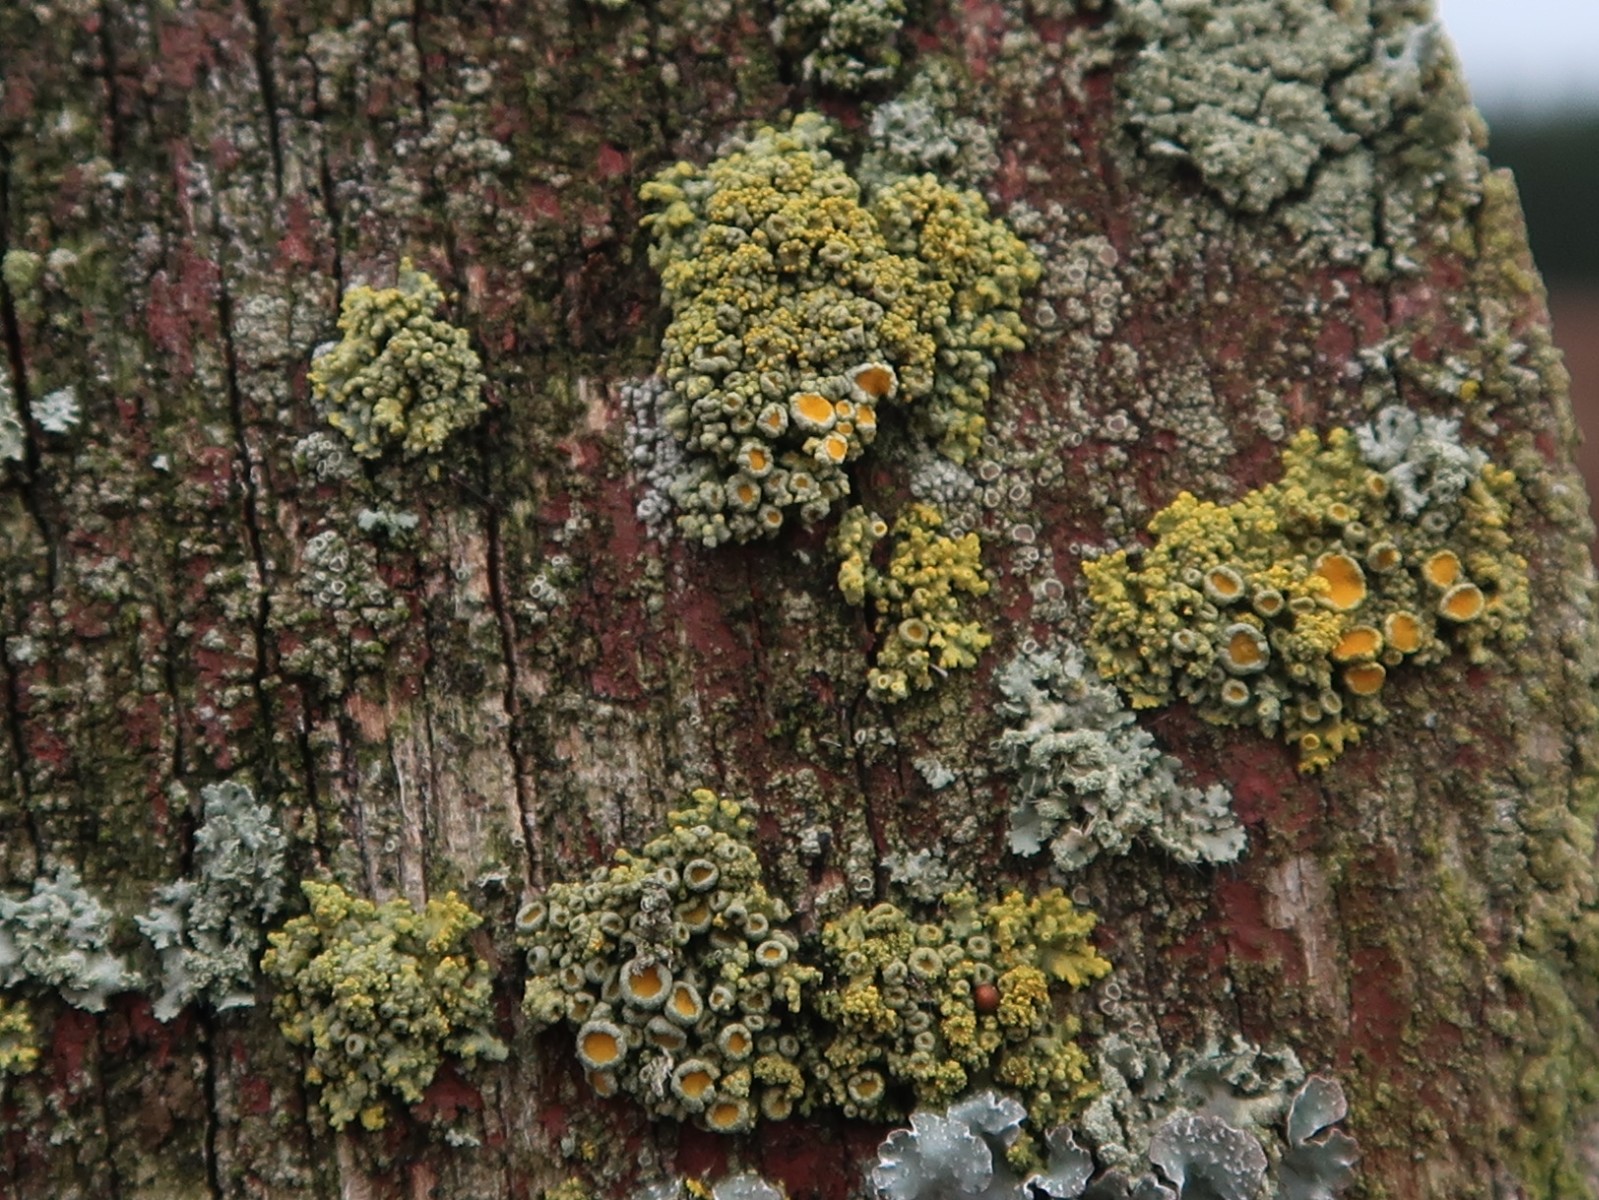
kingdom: Fungi
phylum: Ascomycota
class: Lecanoromycetes
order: Teloschistales
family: Teloschistaceae
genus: Polycauliona
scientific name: Polycauliona polycarpa
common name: mangefrugtet orangelav
